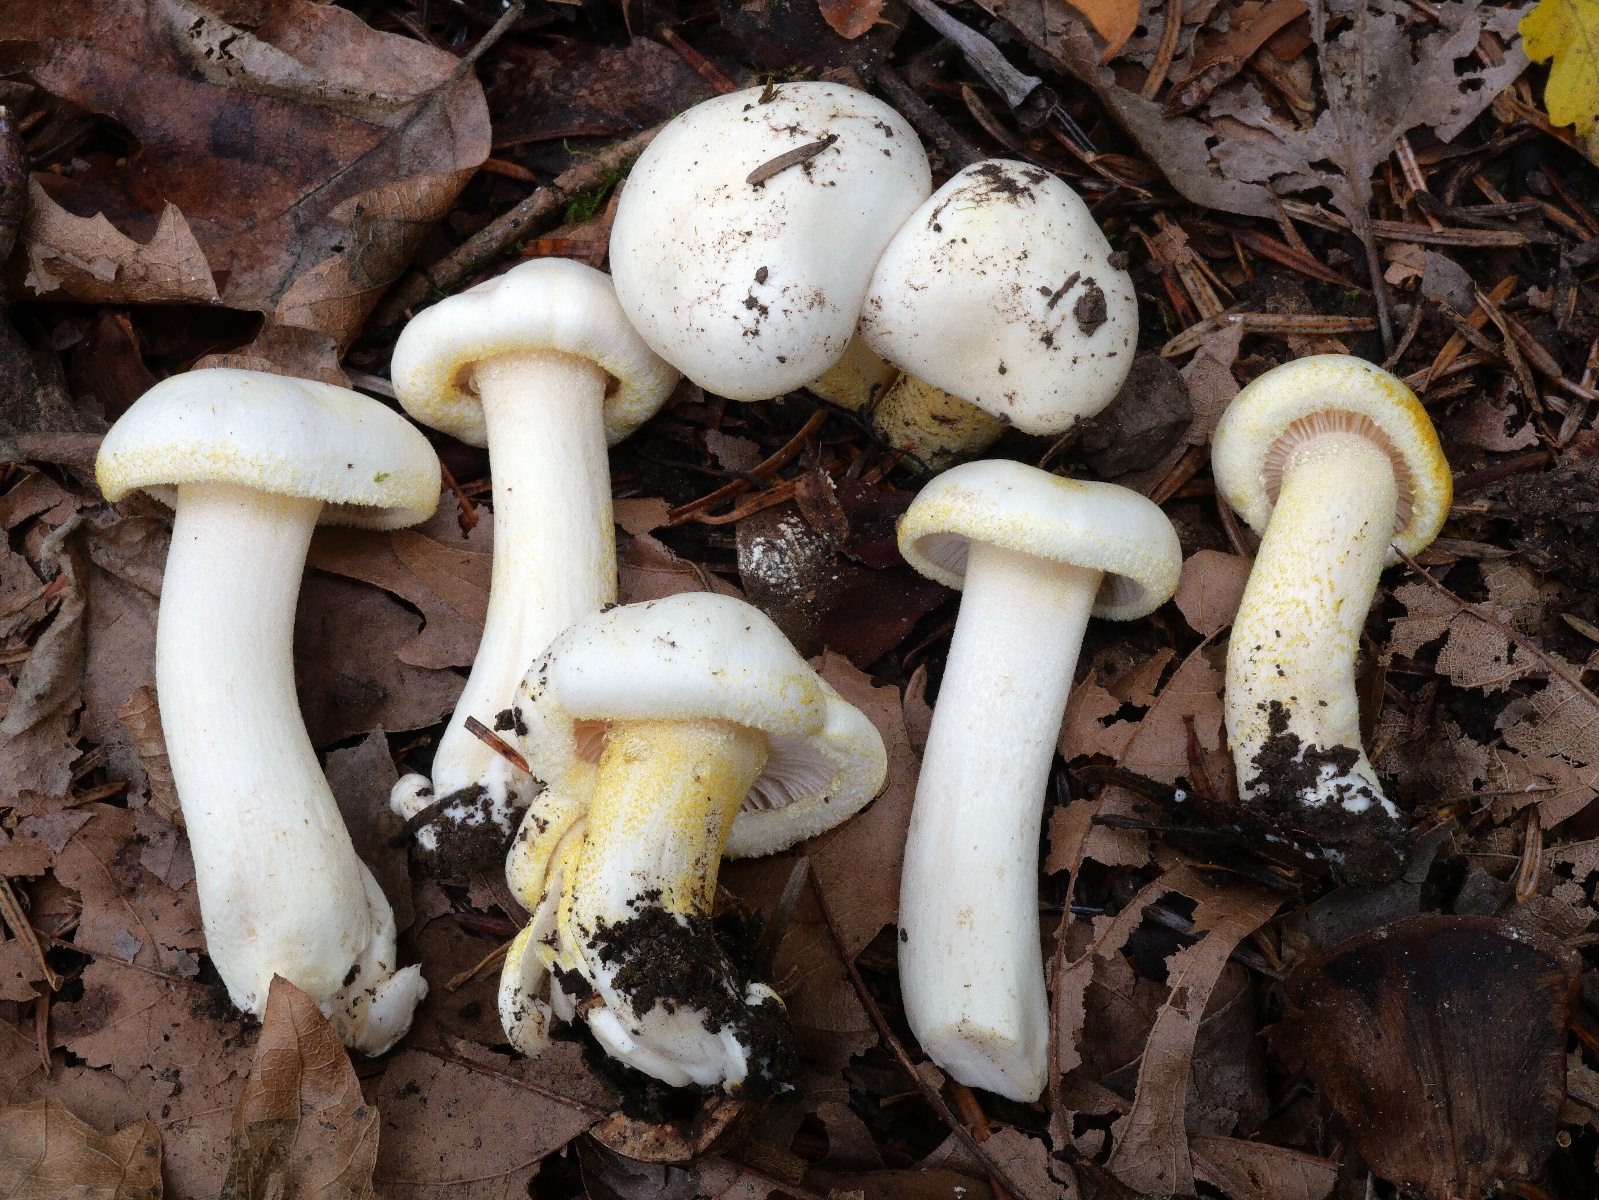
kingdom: Fungi
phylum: Basidiomycota
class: Agaricomycetes
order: Agaricales
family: Hygrophoraceae
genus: Hygrophorus
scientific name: Hygrophorus chrysodon
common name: gulfnugget sneglehat
